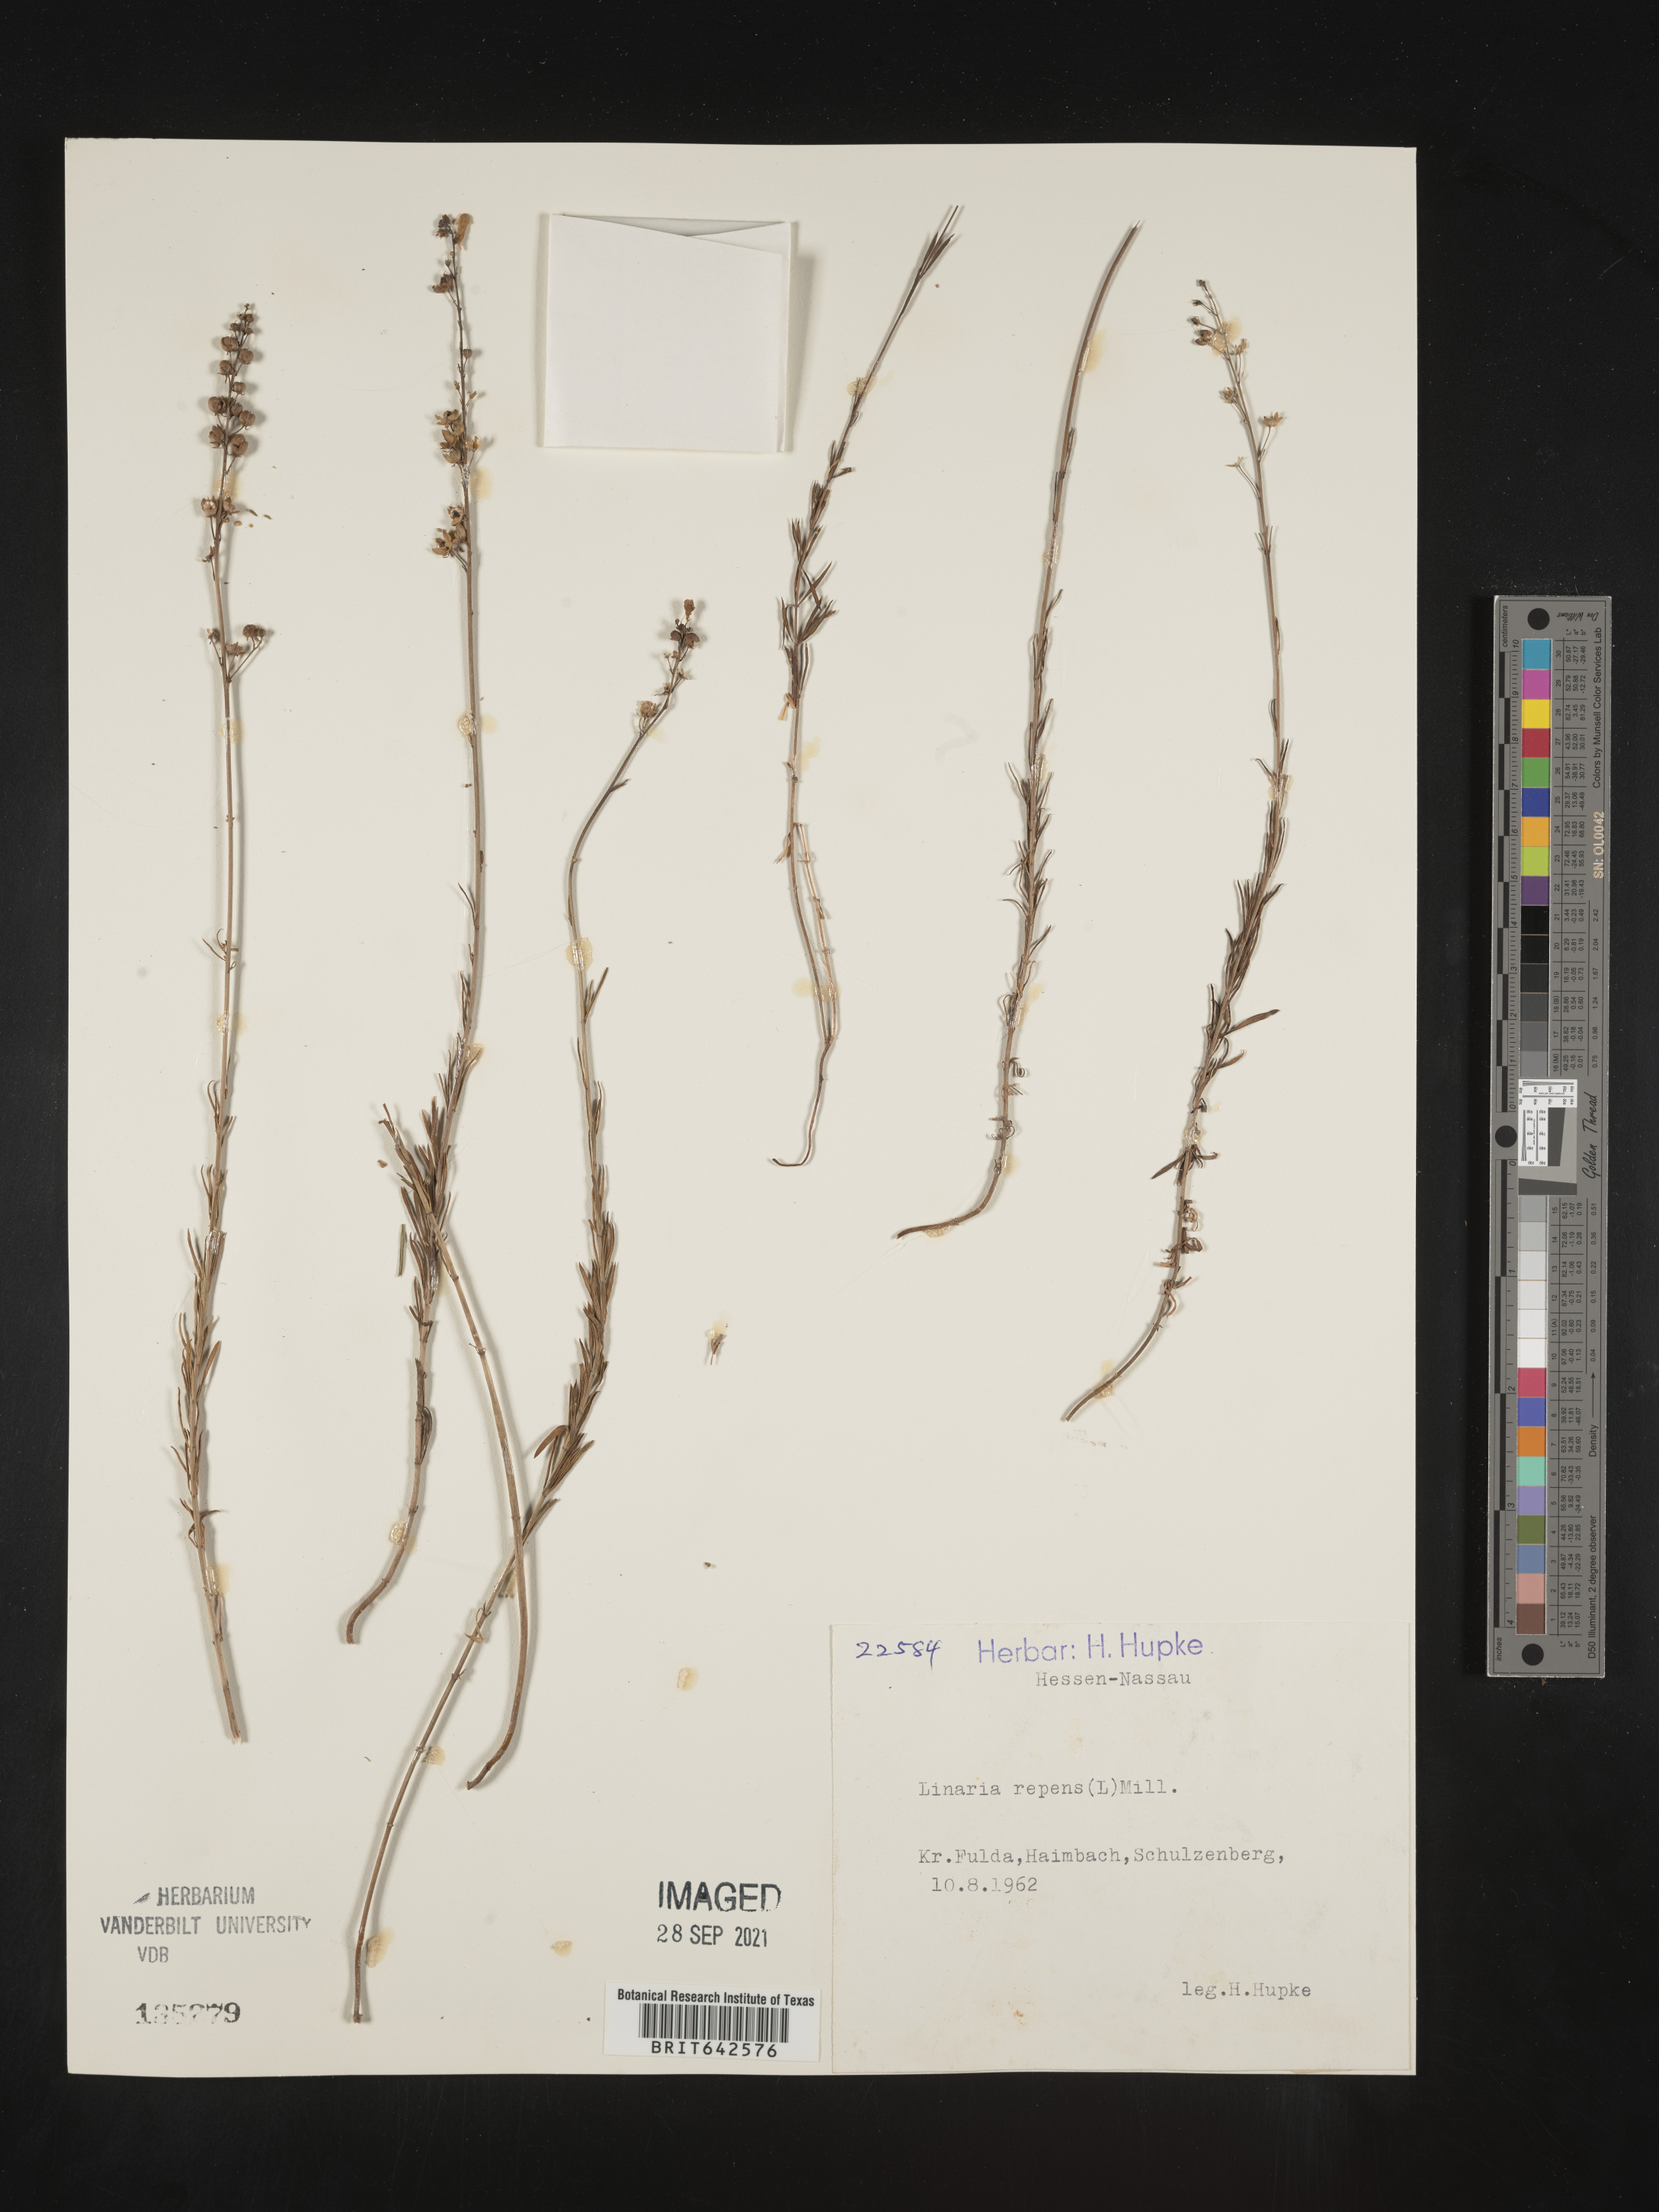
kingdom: Plantae
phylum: Tracheophyta
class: Magnoliopsida
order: Lamiales
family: Plantaginaceae
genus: Linaria
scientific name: Linaria
